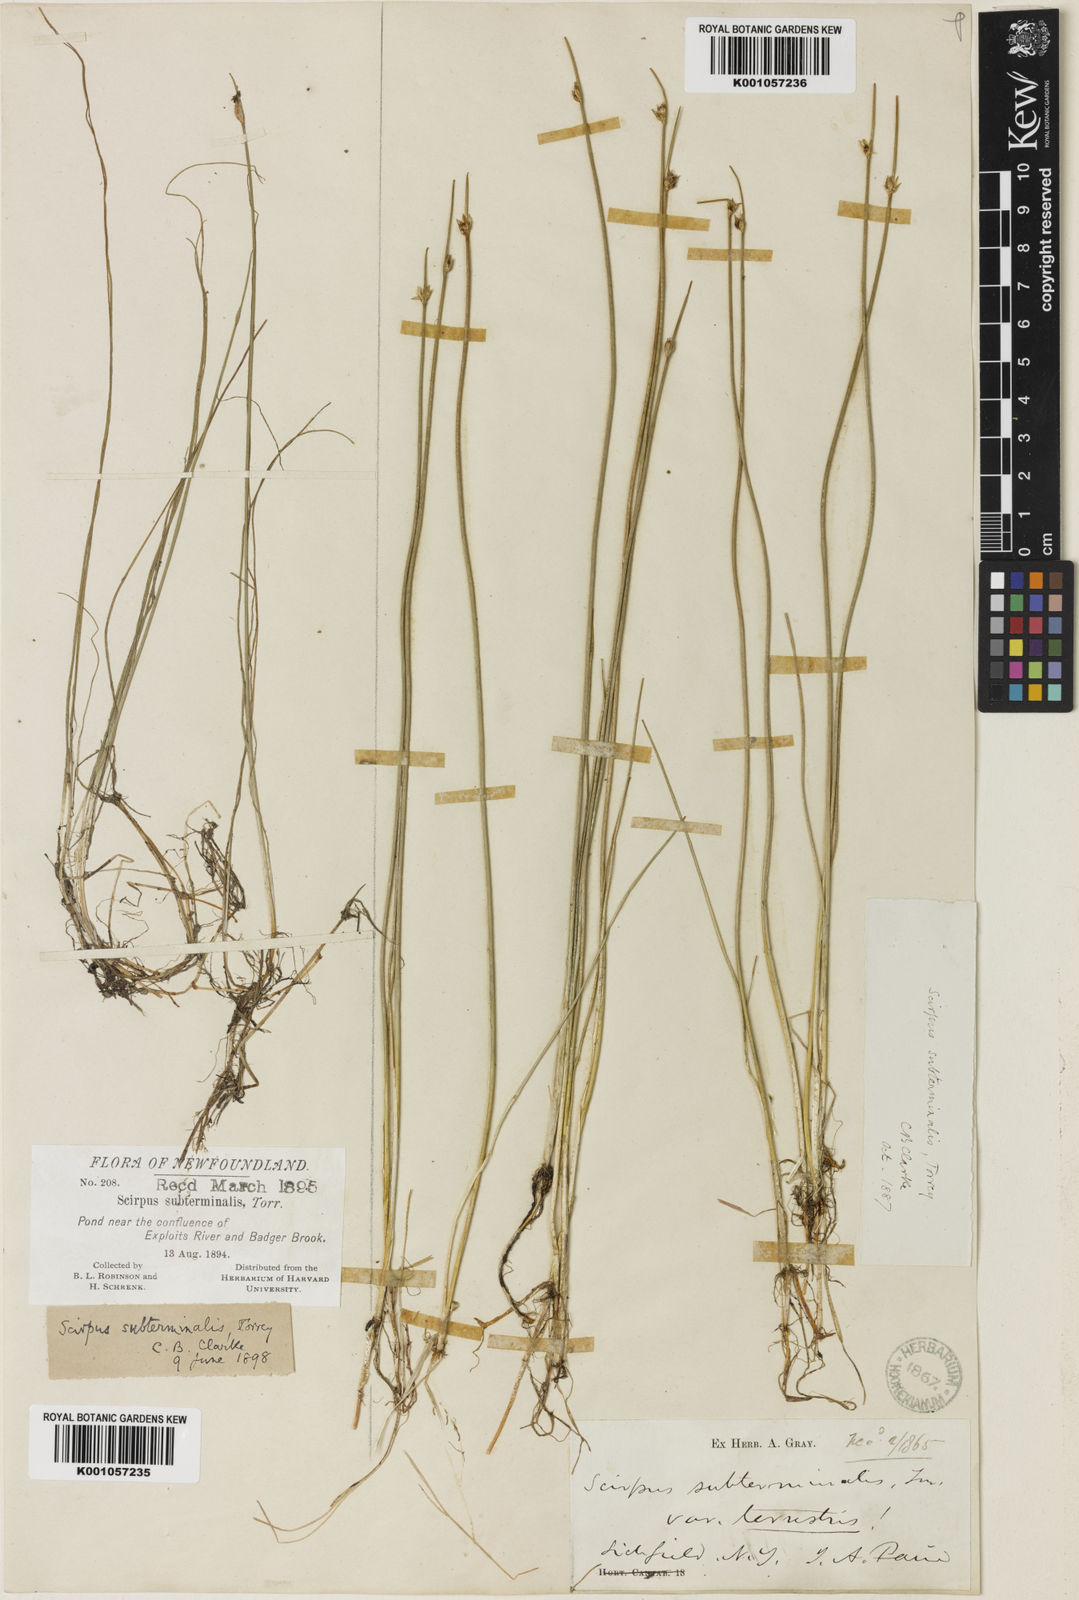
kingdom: Plantae
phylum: Tracheophyta
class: Liliopsida
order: Poales
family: Cyperaceae
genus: Schoenoplectus
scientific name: Schoenoplectus
